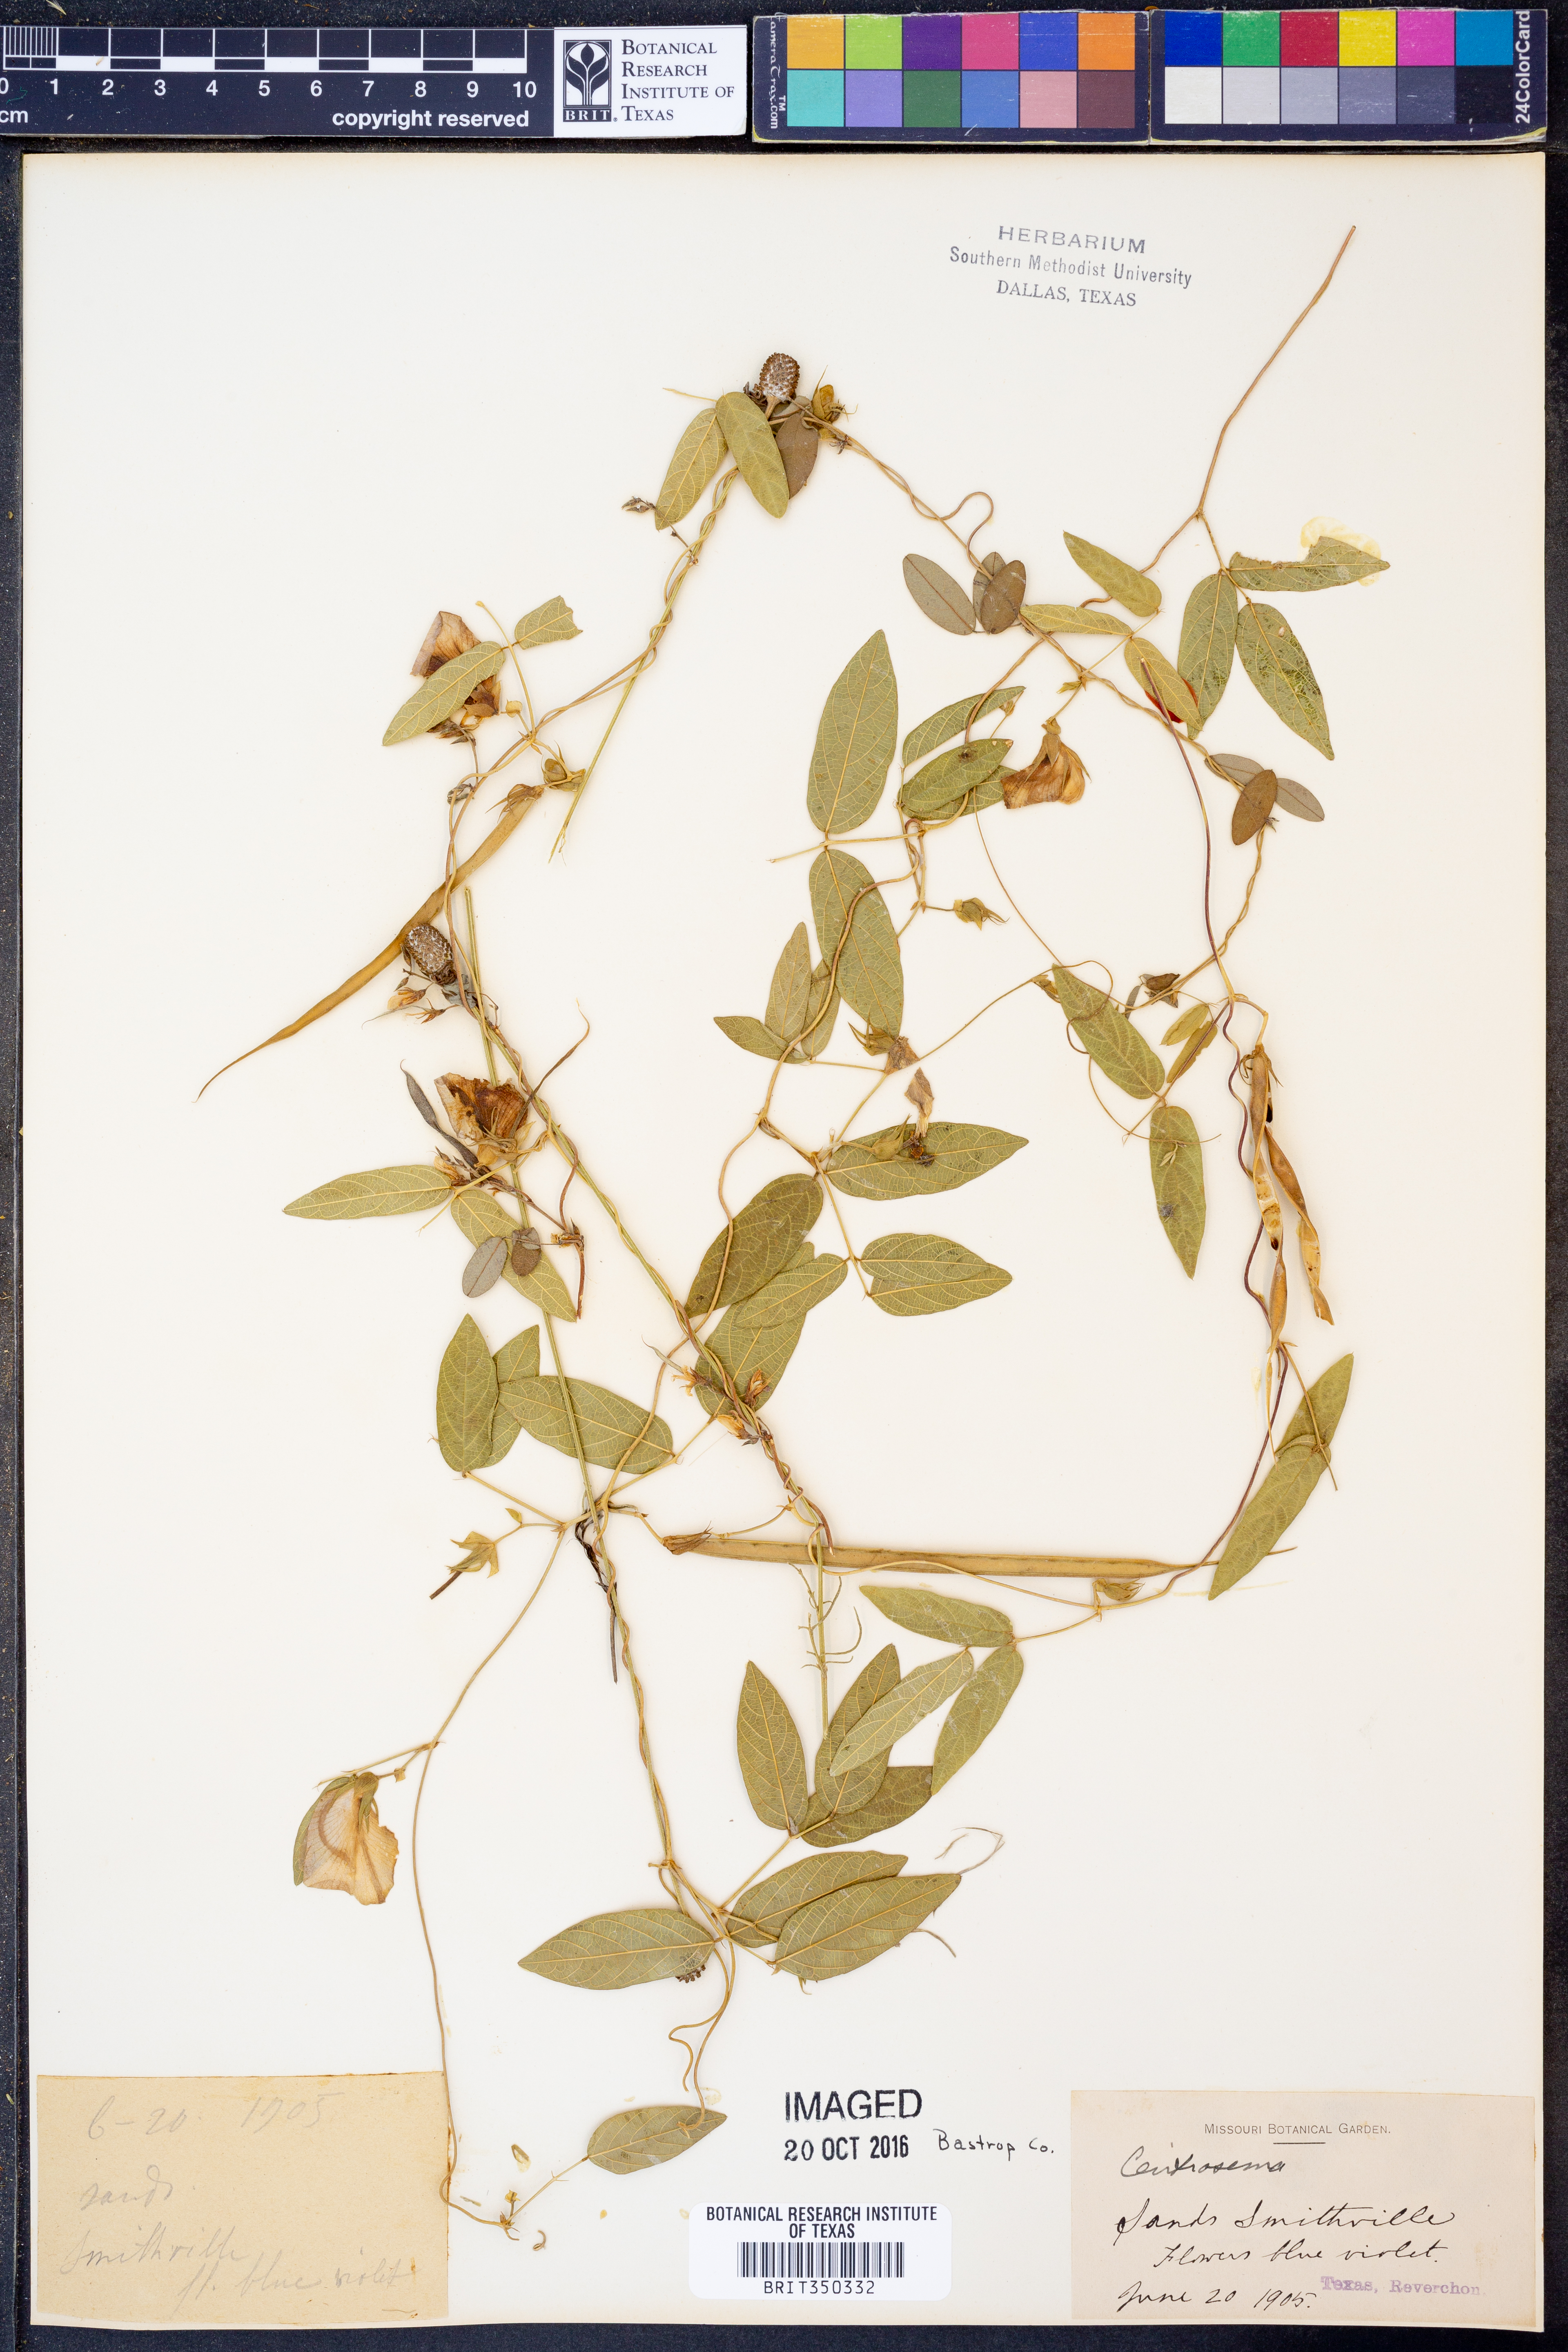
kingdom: Plantae
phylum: Tracheophyta
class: Magnoliopsida
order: Fabales
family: Fabaceae
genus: Centrosema
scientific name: Centrosema
